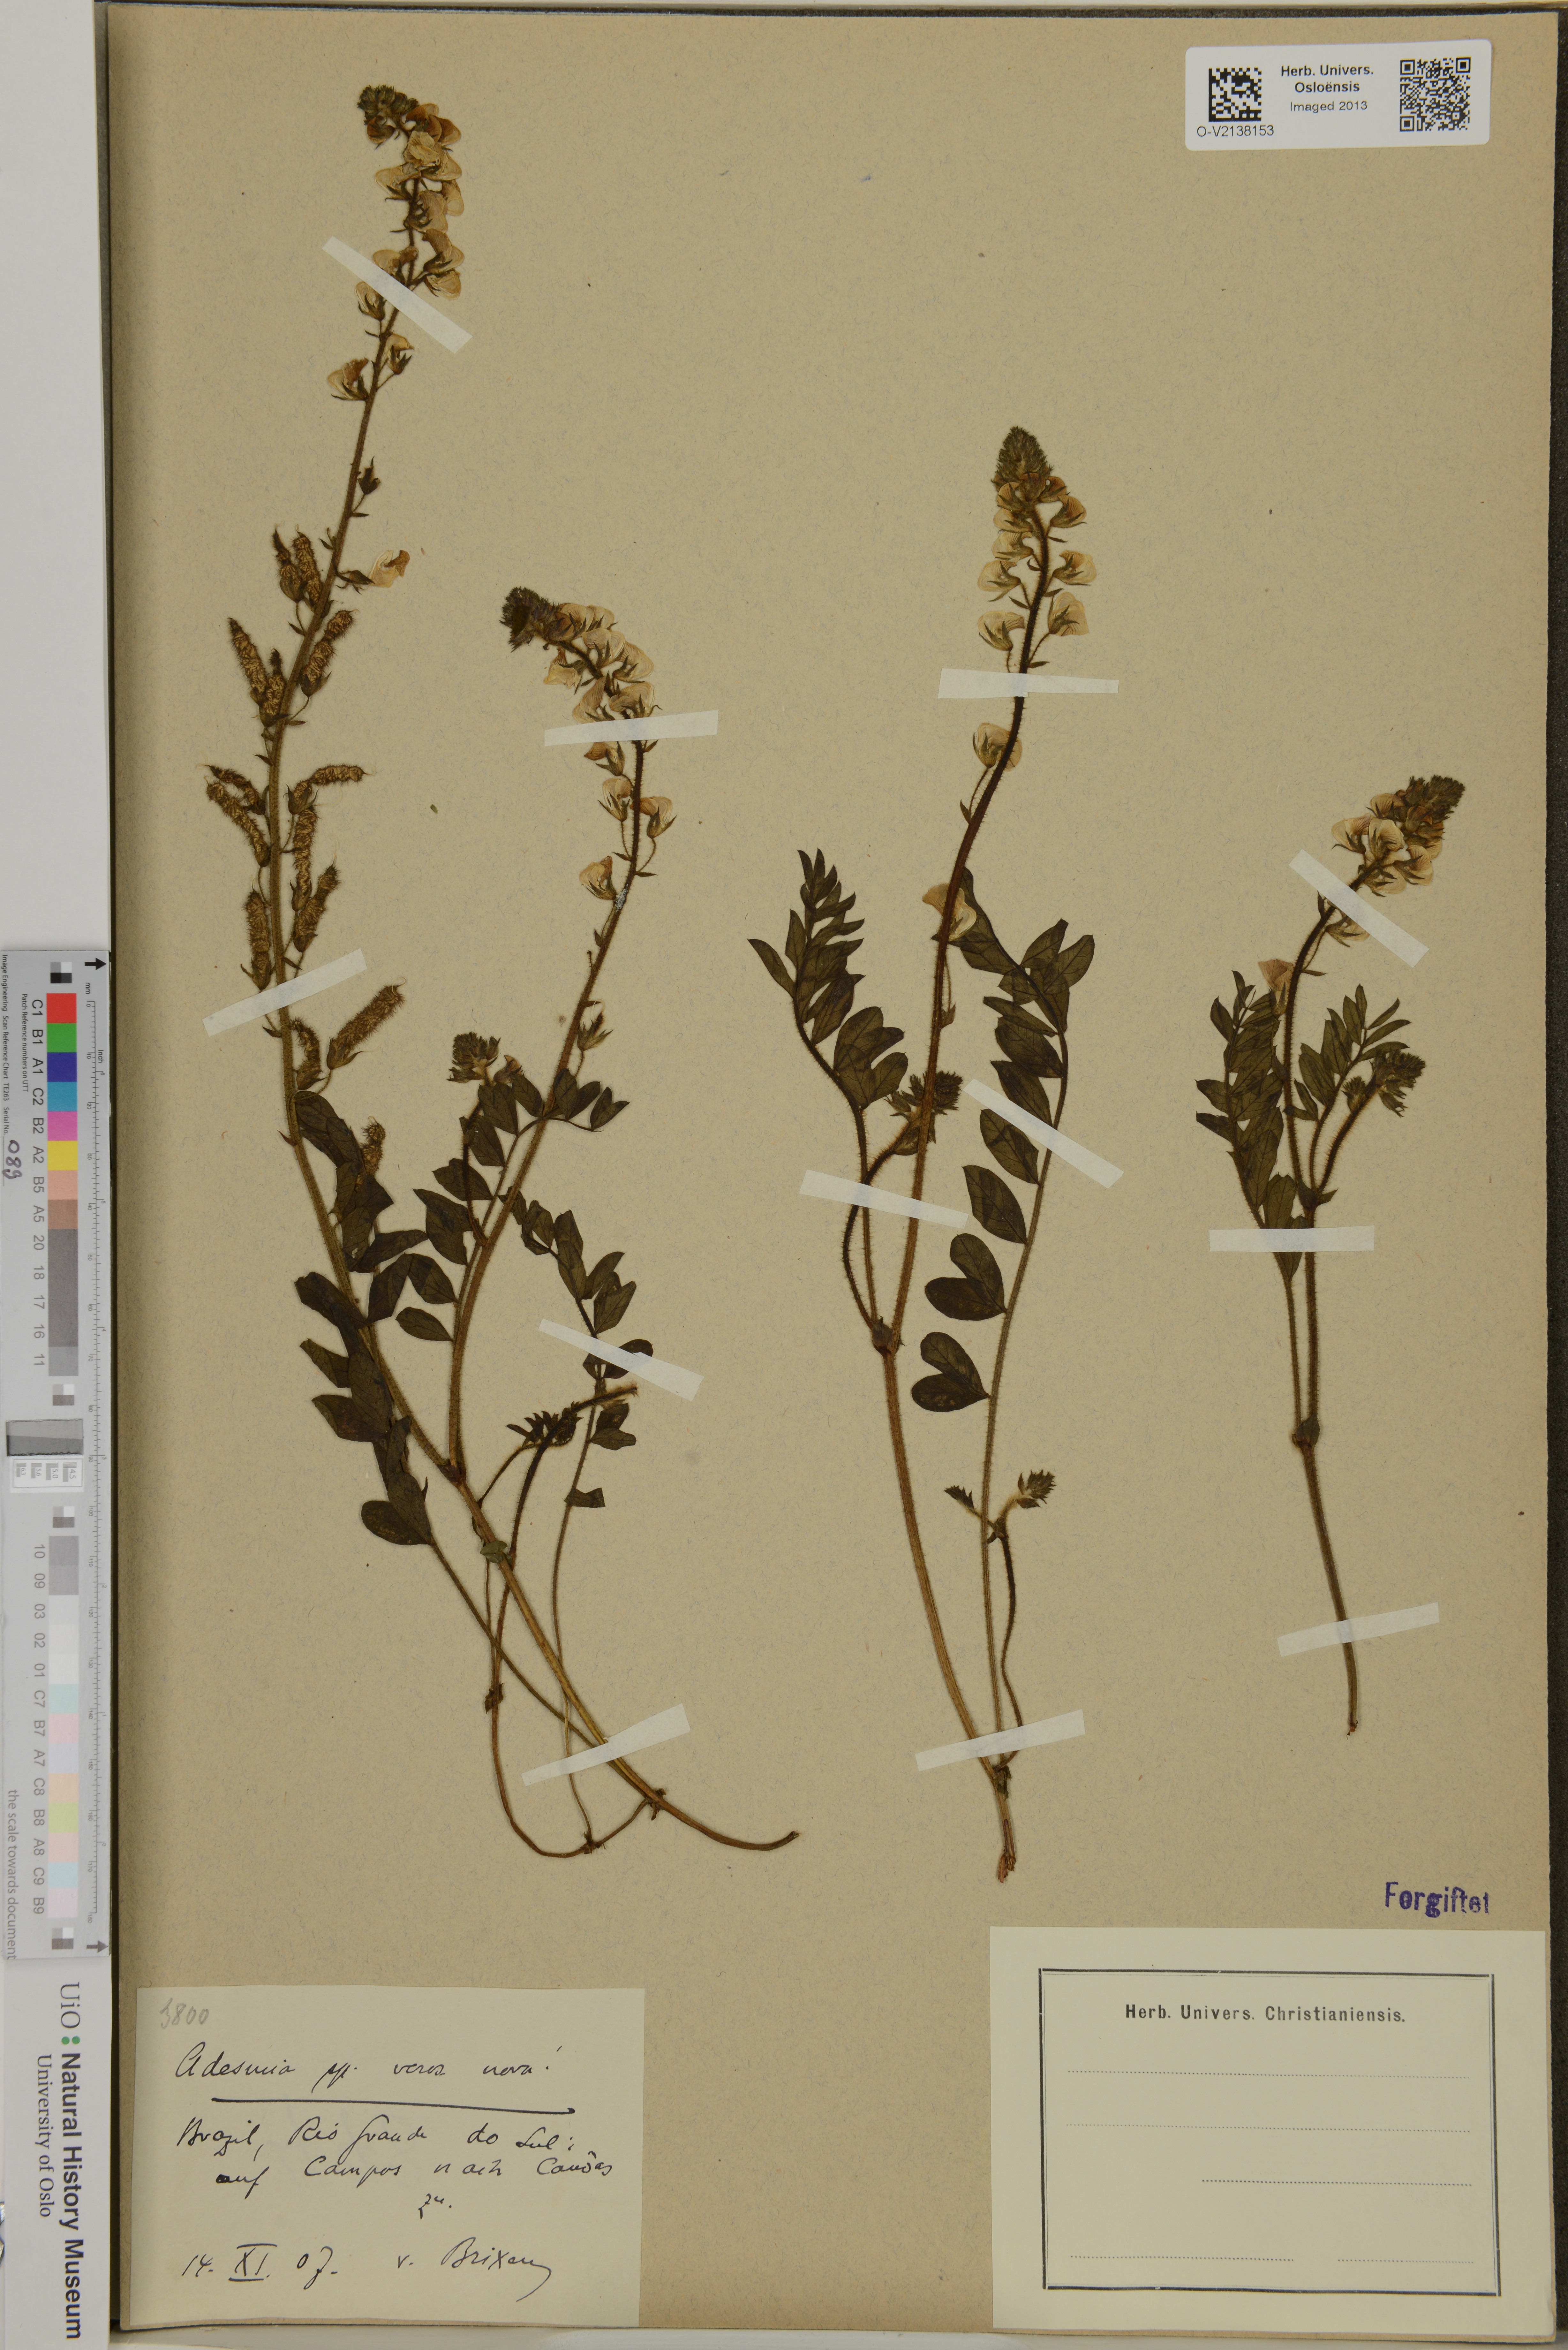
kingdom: Plantae
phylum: Tracheophyta
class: Magnoliopsida
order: Fabales
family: Fabaceae
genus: Adesmia
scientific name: Adesmia
